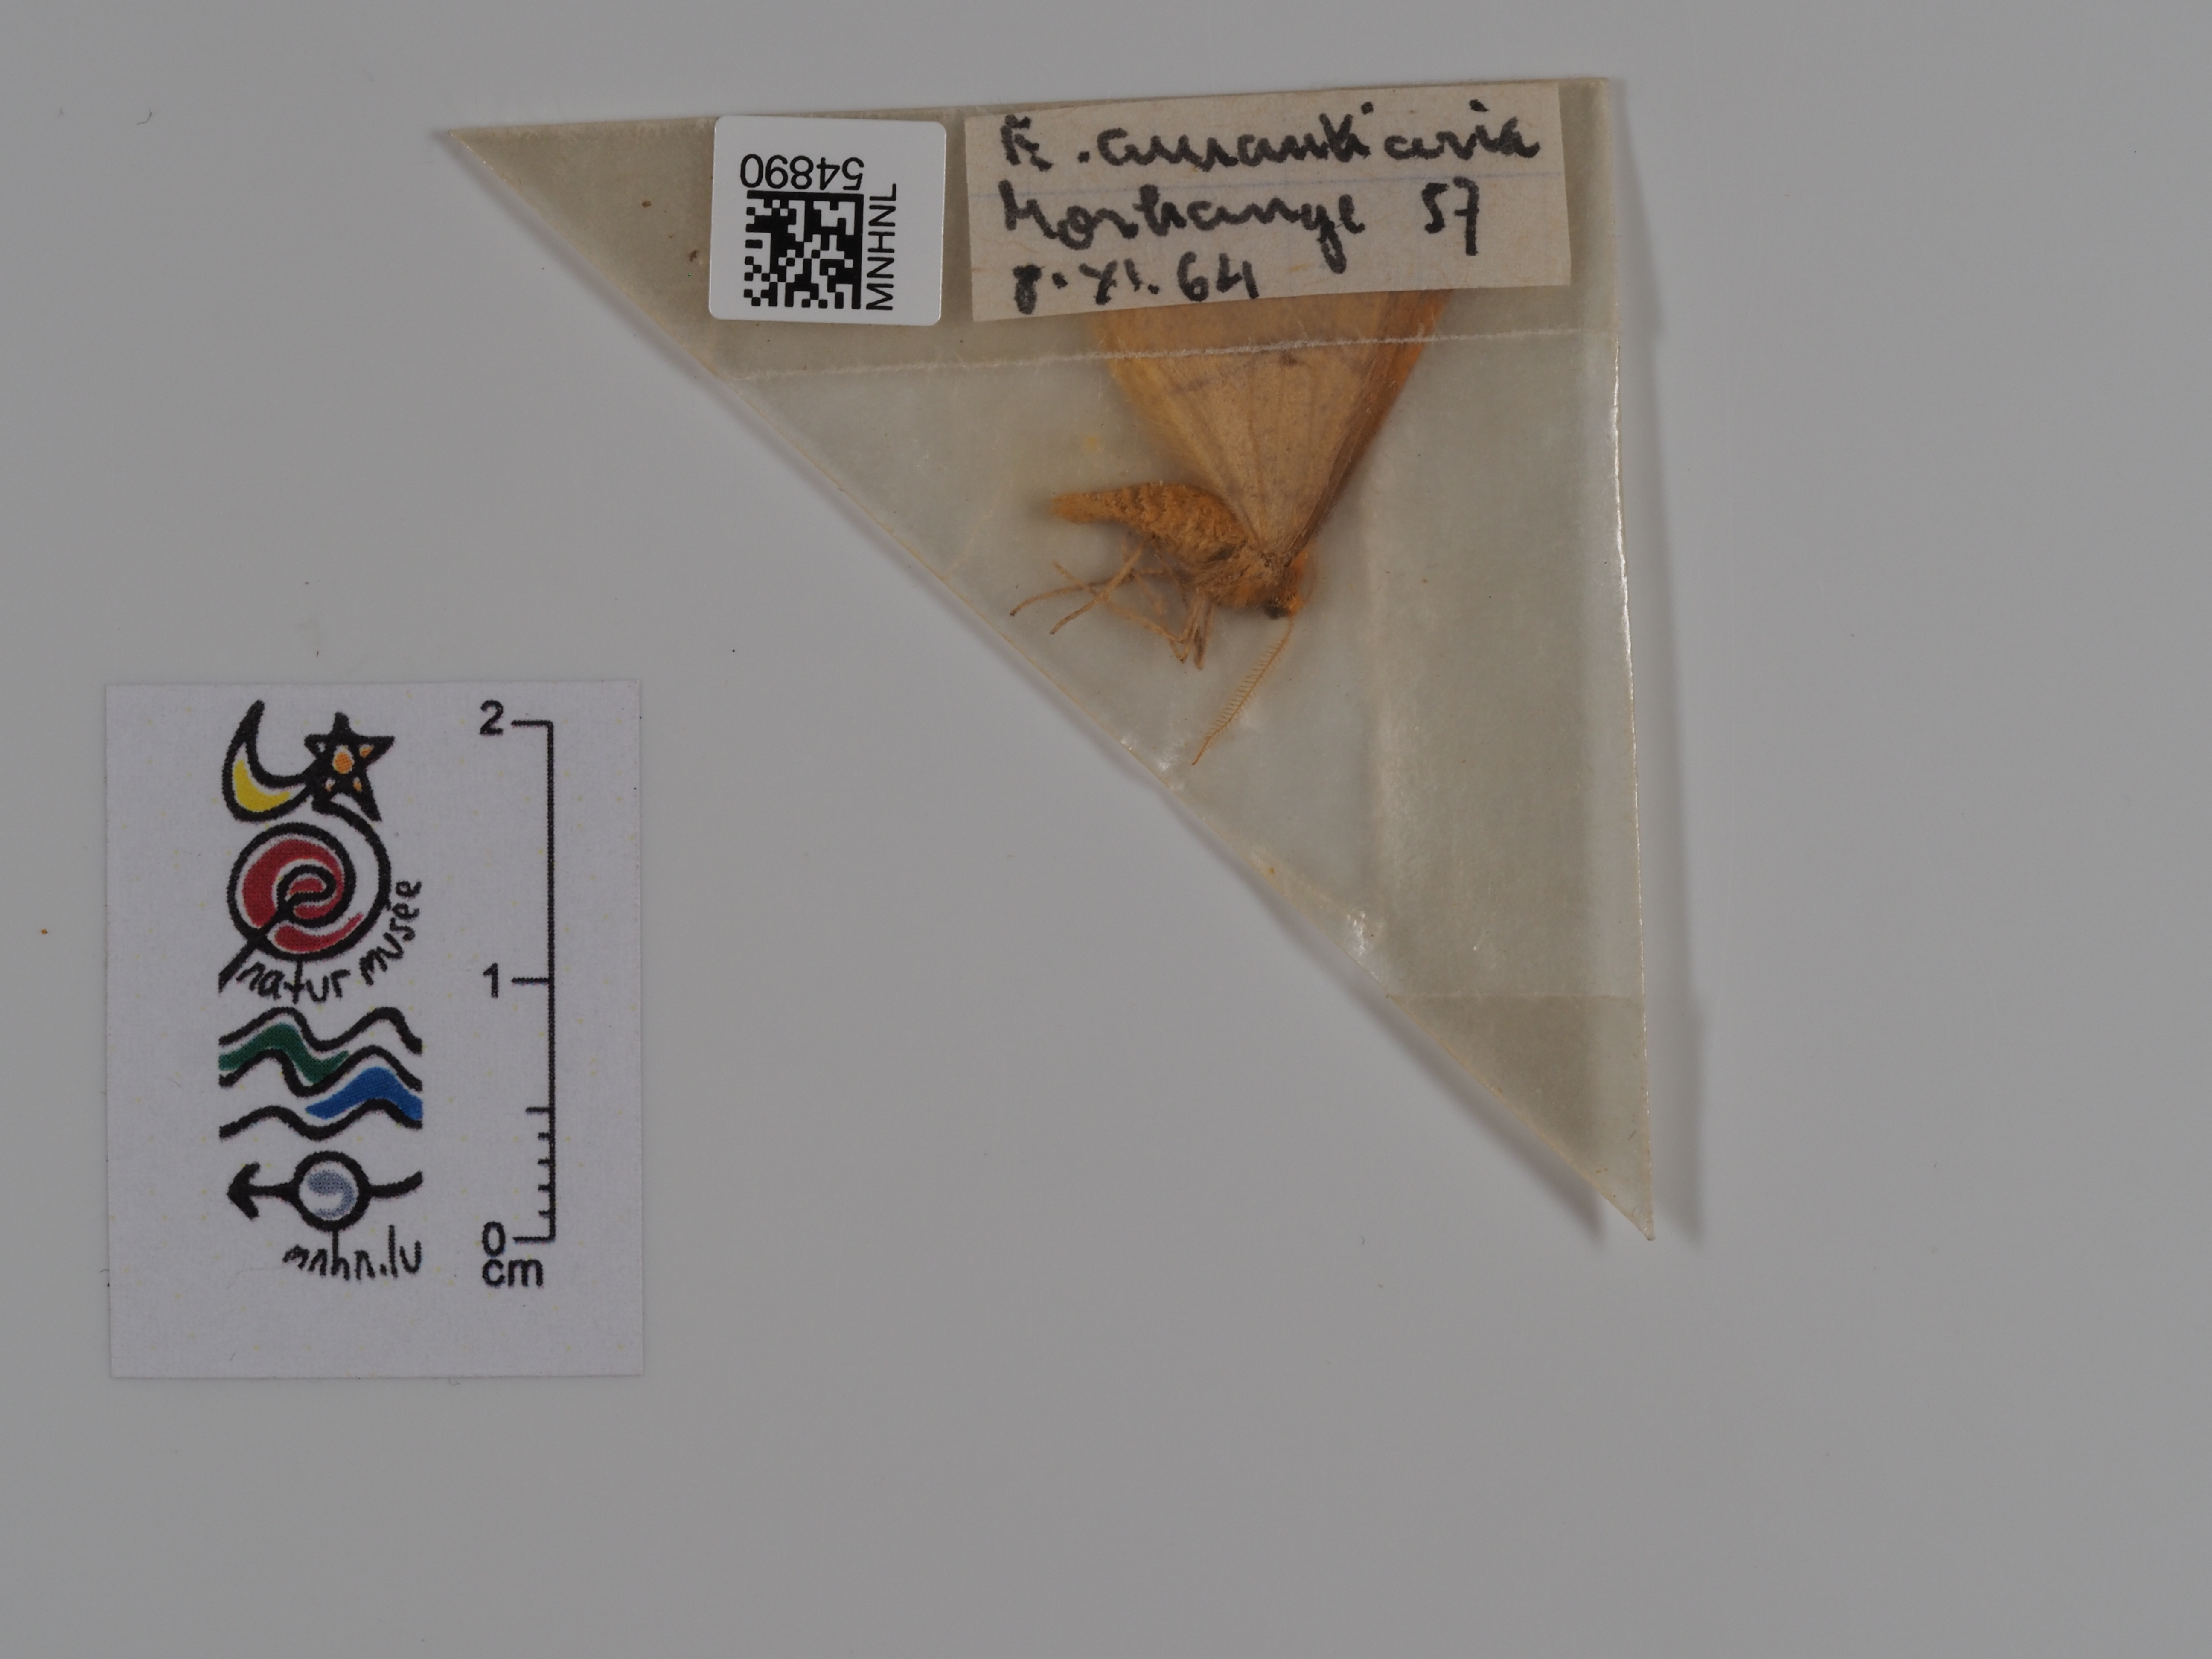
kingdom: Animalia
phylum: Arthropoda
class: Insecta
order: Lepidoptera
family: Geometridae
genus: Erannis
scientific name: Erannis
